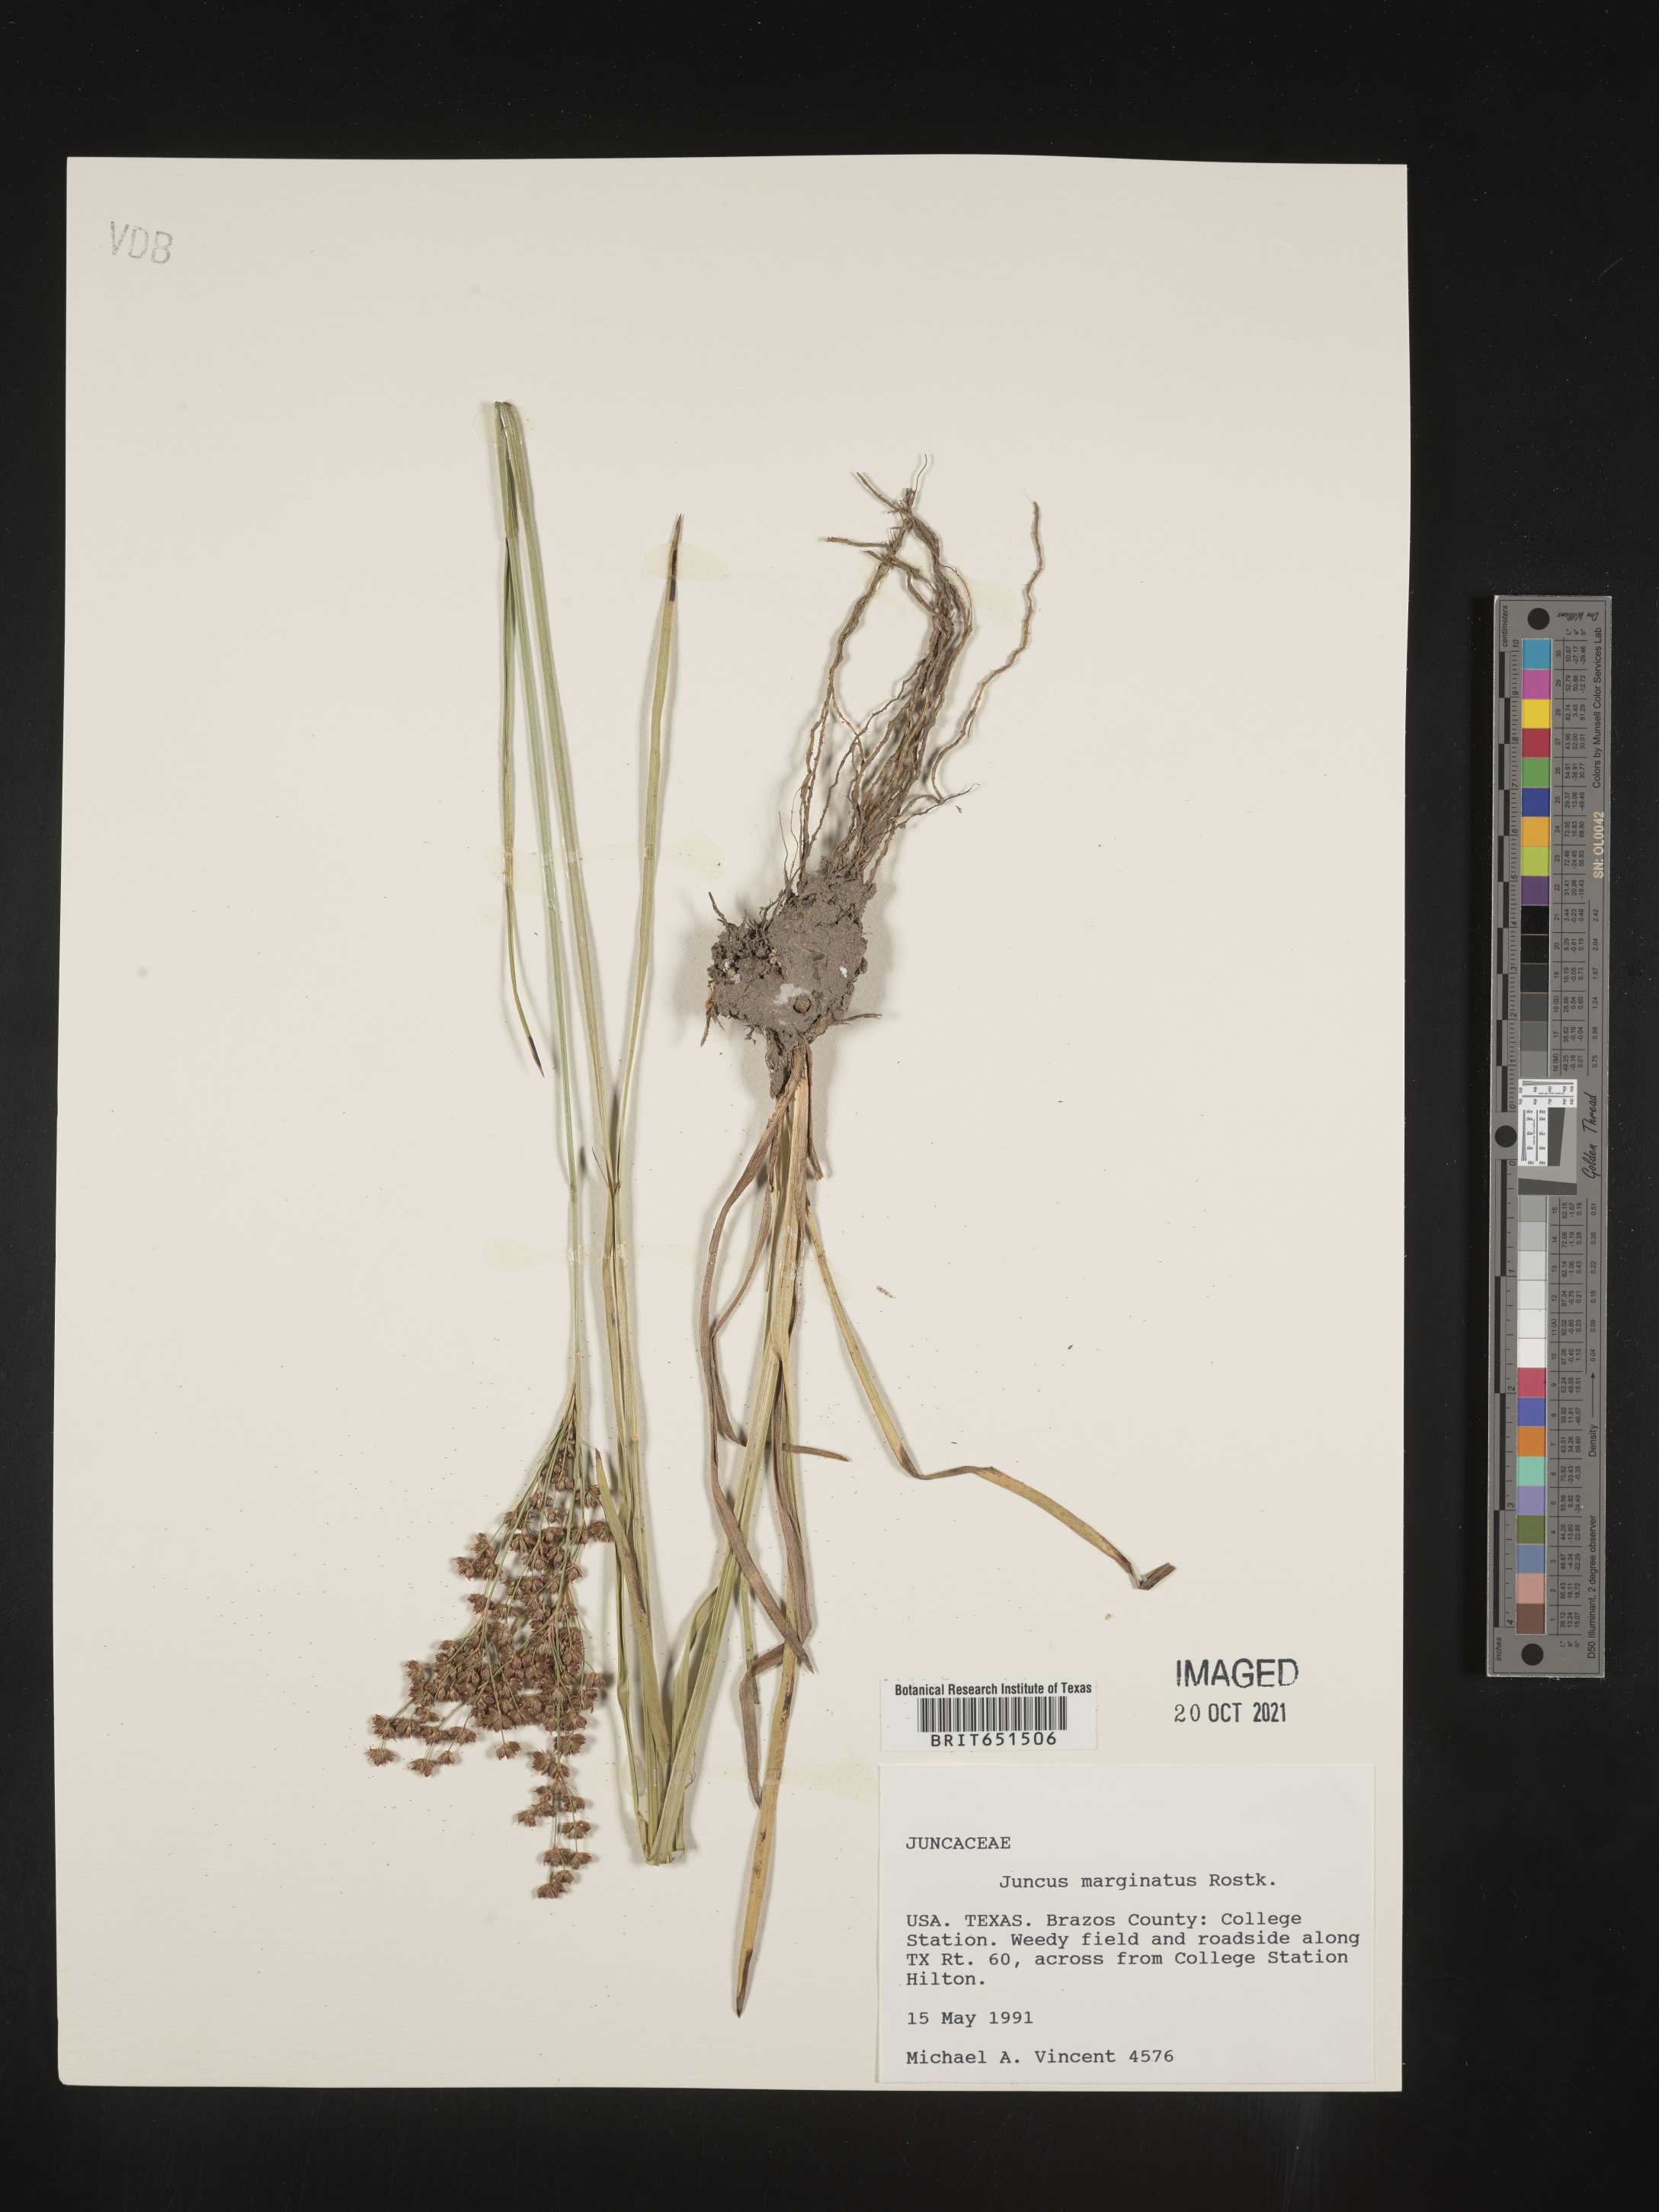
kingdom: Plantae
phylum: Tracheophyta
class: Liliopsida
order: Poales
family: Juncaceae
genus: Juncus
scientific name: Juncus biflorus
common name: Two-flowered rush
